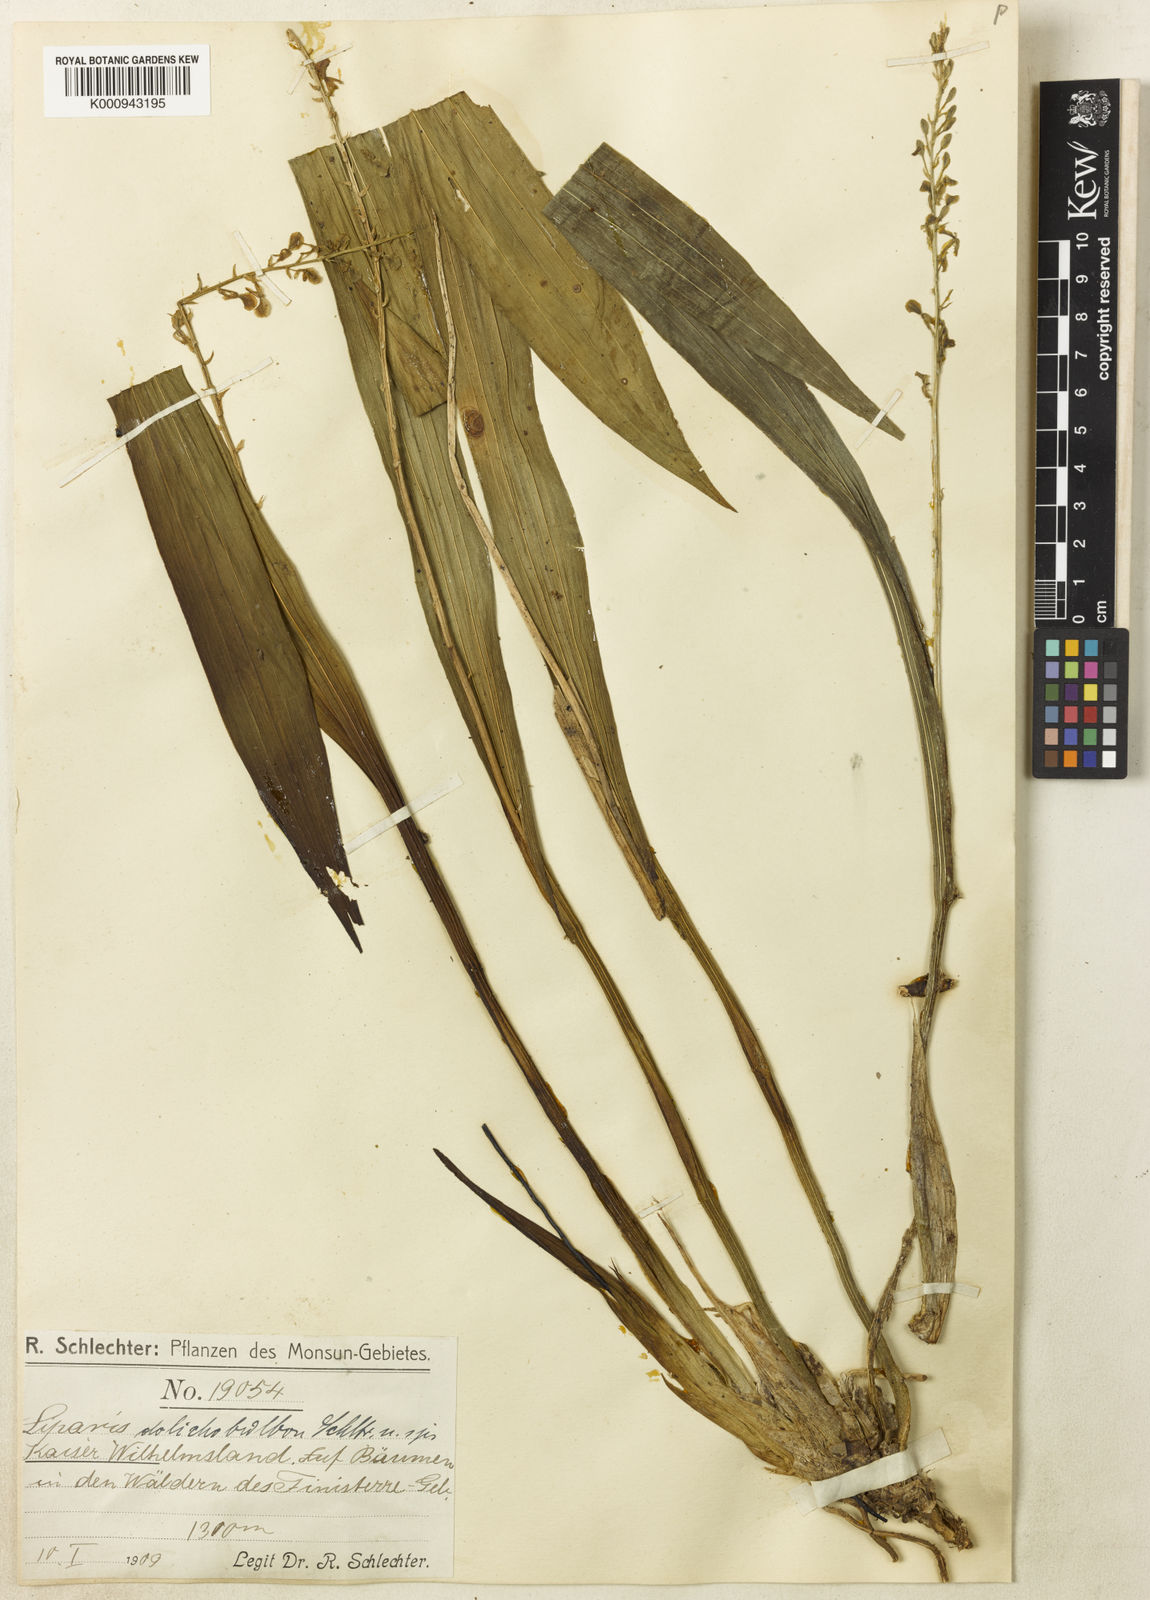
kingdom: Plantae
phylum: Tracheophyta
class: Liliopsida
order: Asparagales
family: Orchidaceae
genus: Liparis
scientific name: Liparis dolichobulbon
